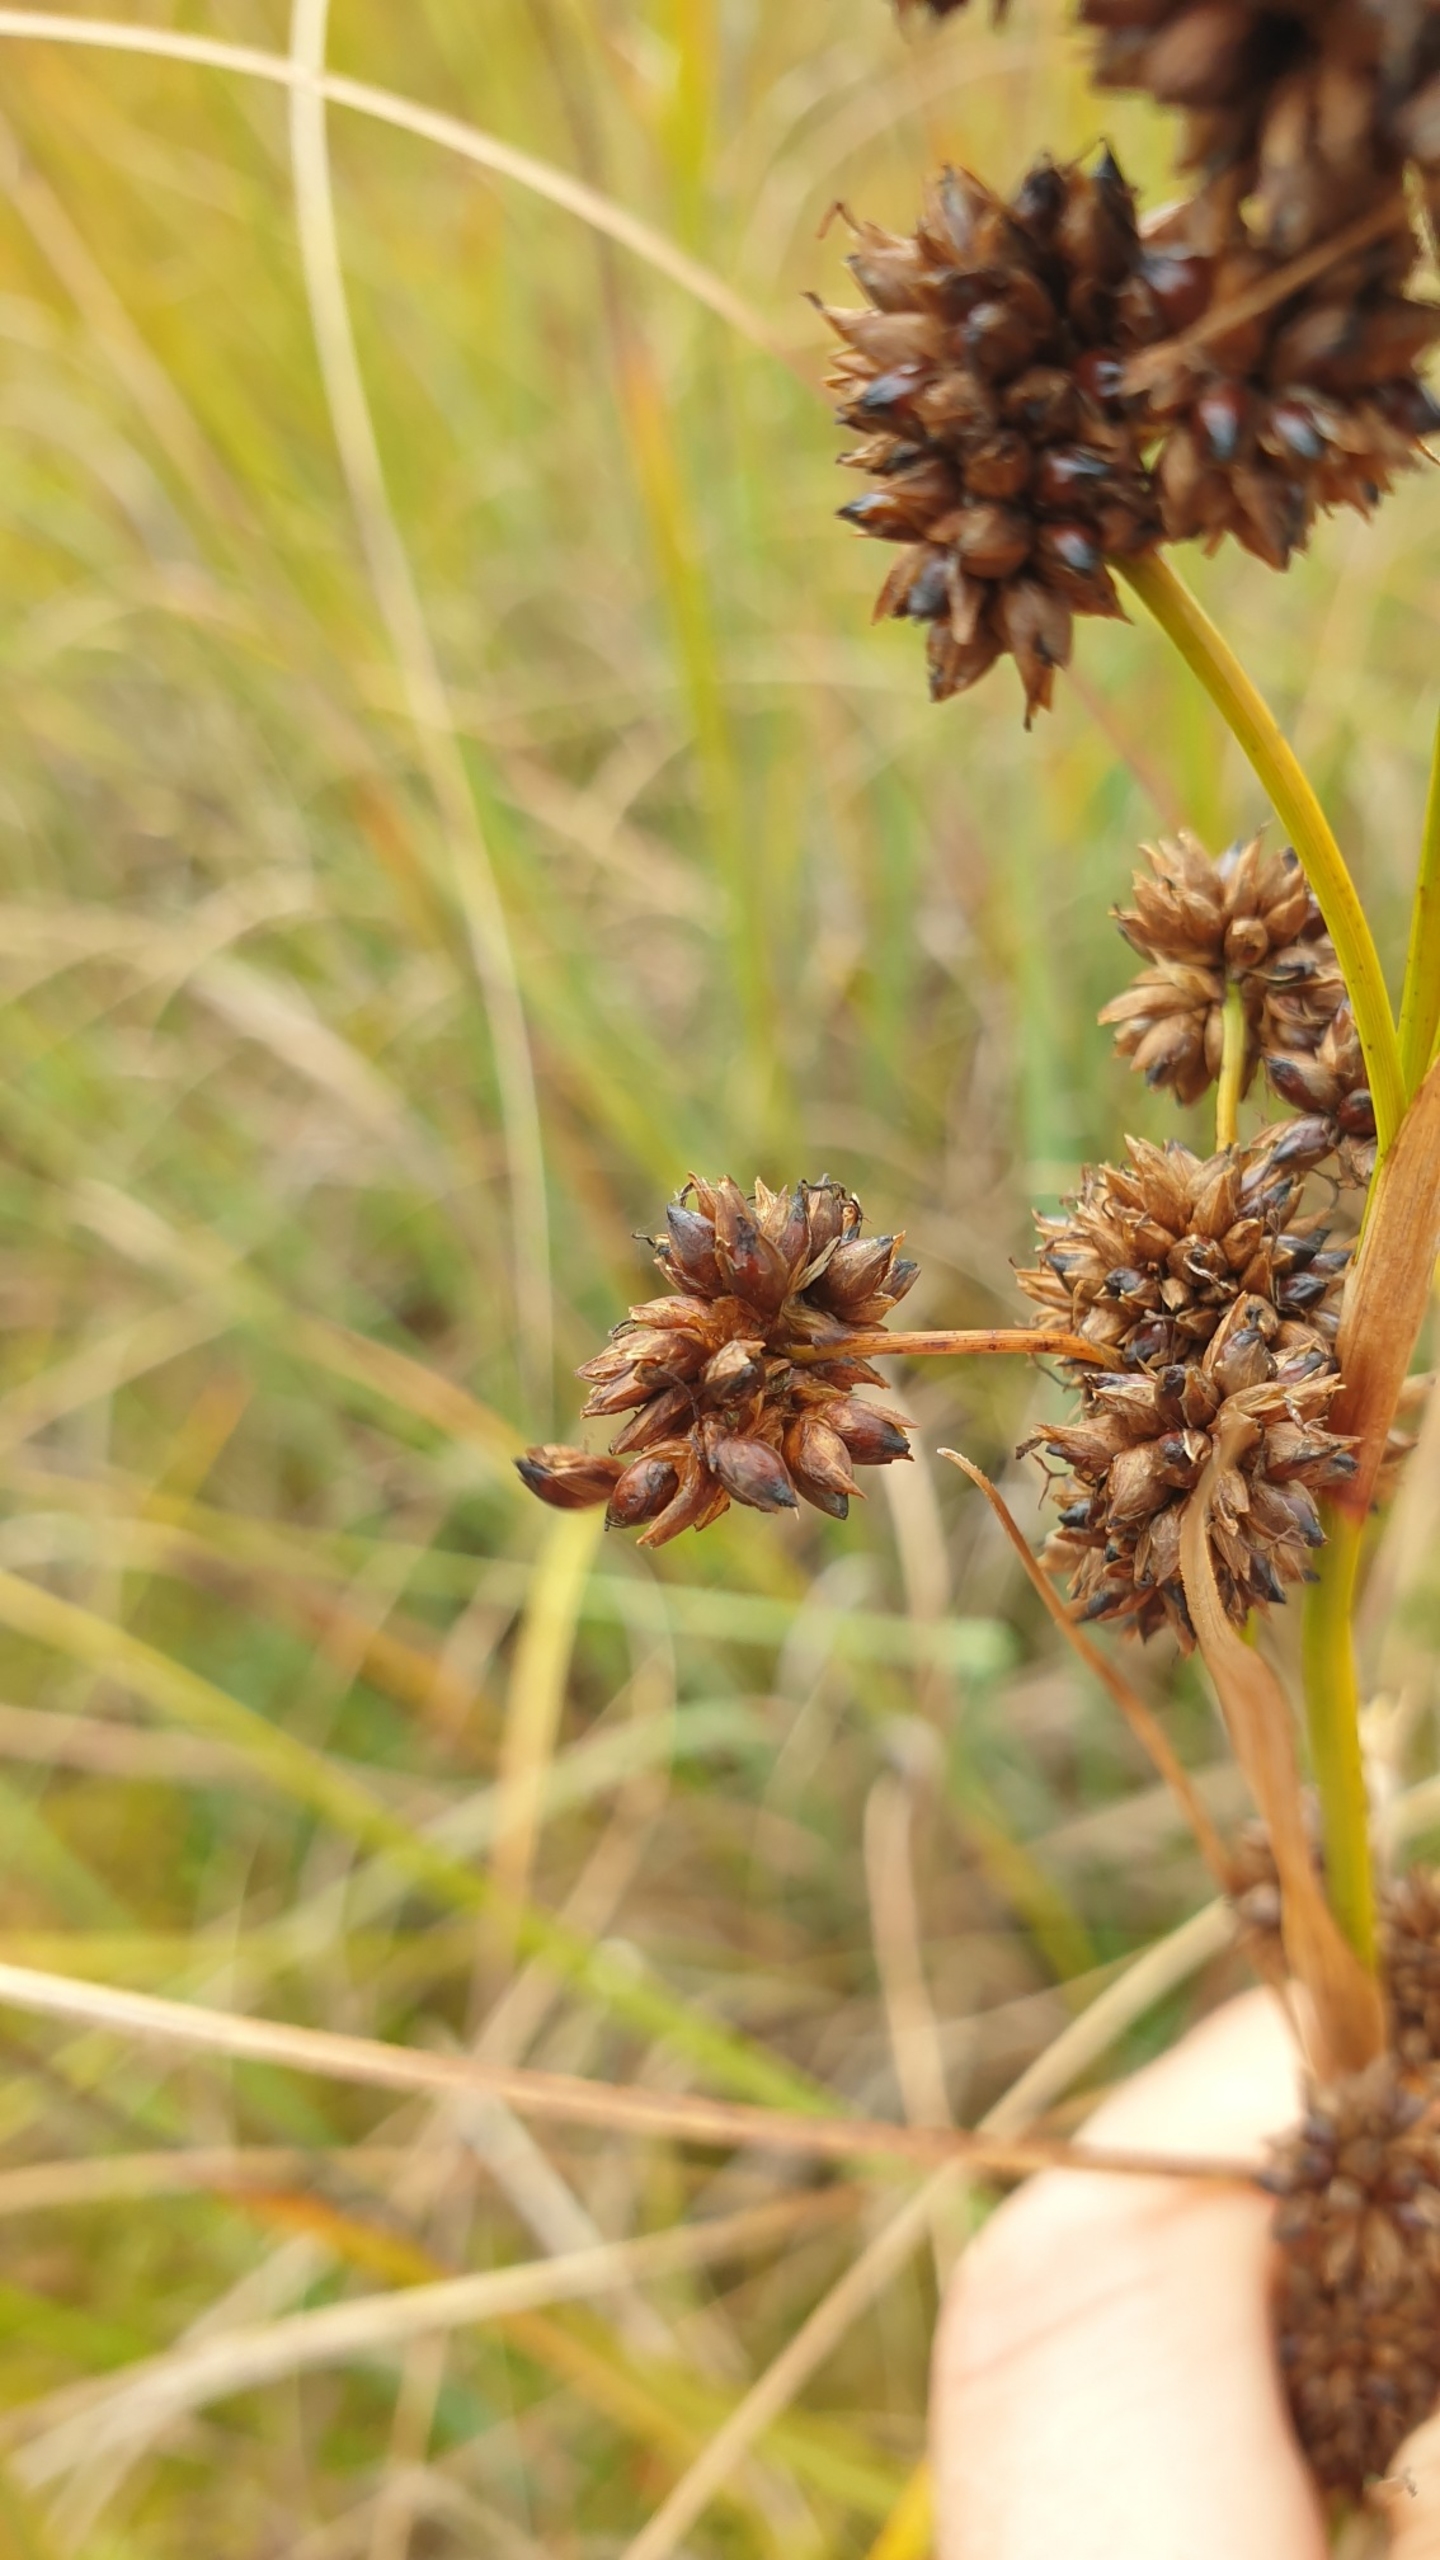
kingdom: Plantae
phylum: Tracheophyta
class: Liliopsida
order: Poales
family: Cyperaceae
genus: Cladium
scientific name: Cladium mariscus
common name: Hvas avneknippe
